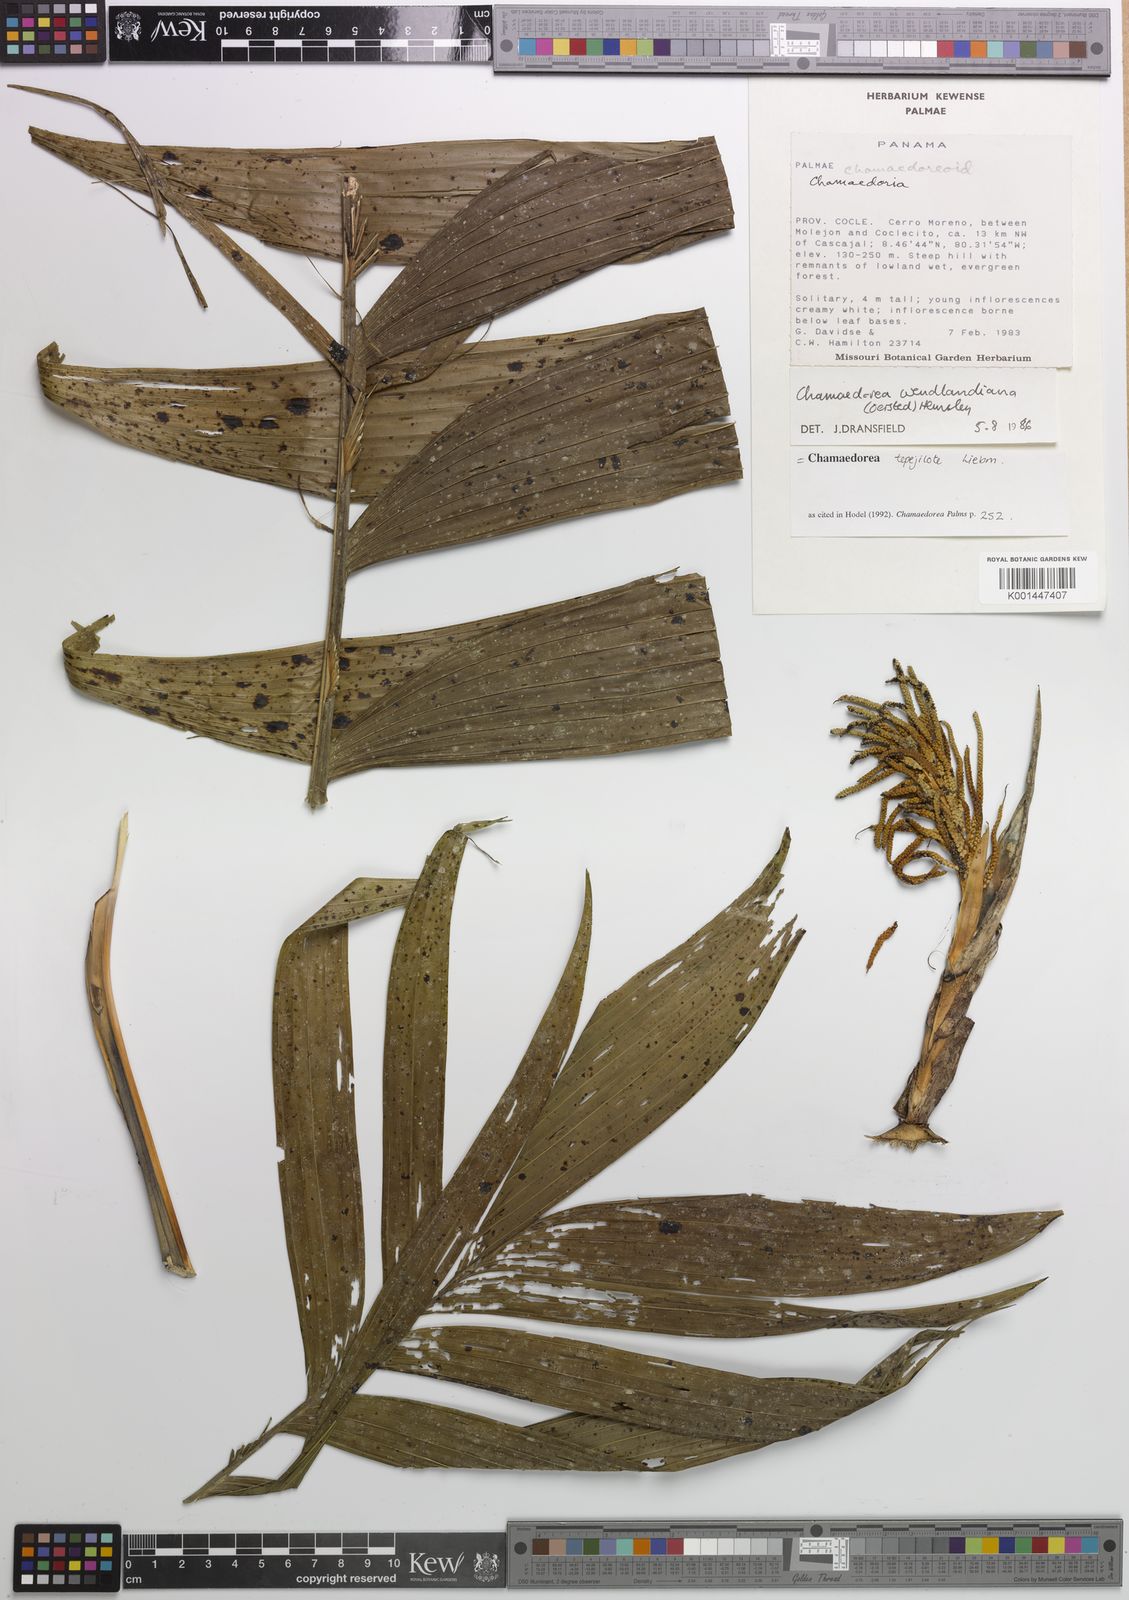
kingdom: Plantae
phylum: Tracheophyta
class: Liliopsida
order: Arecales
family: Arecaceae
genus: Chamaedorea
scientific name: Chamaedorea tepejilote
